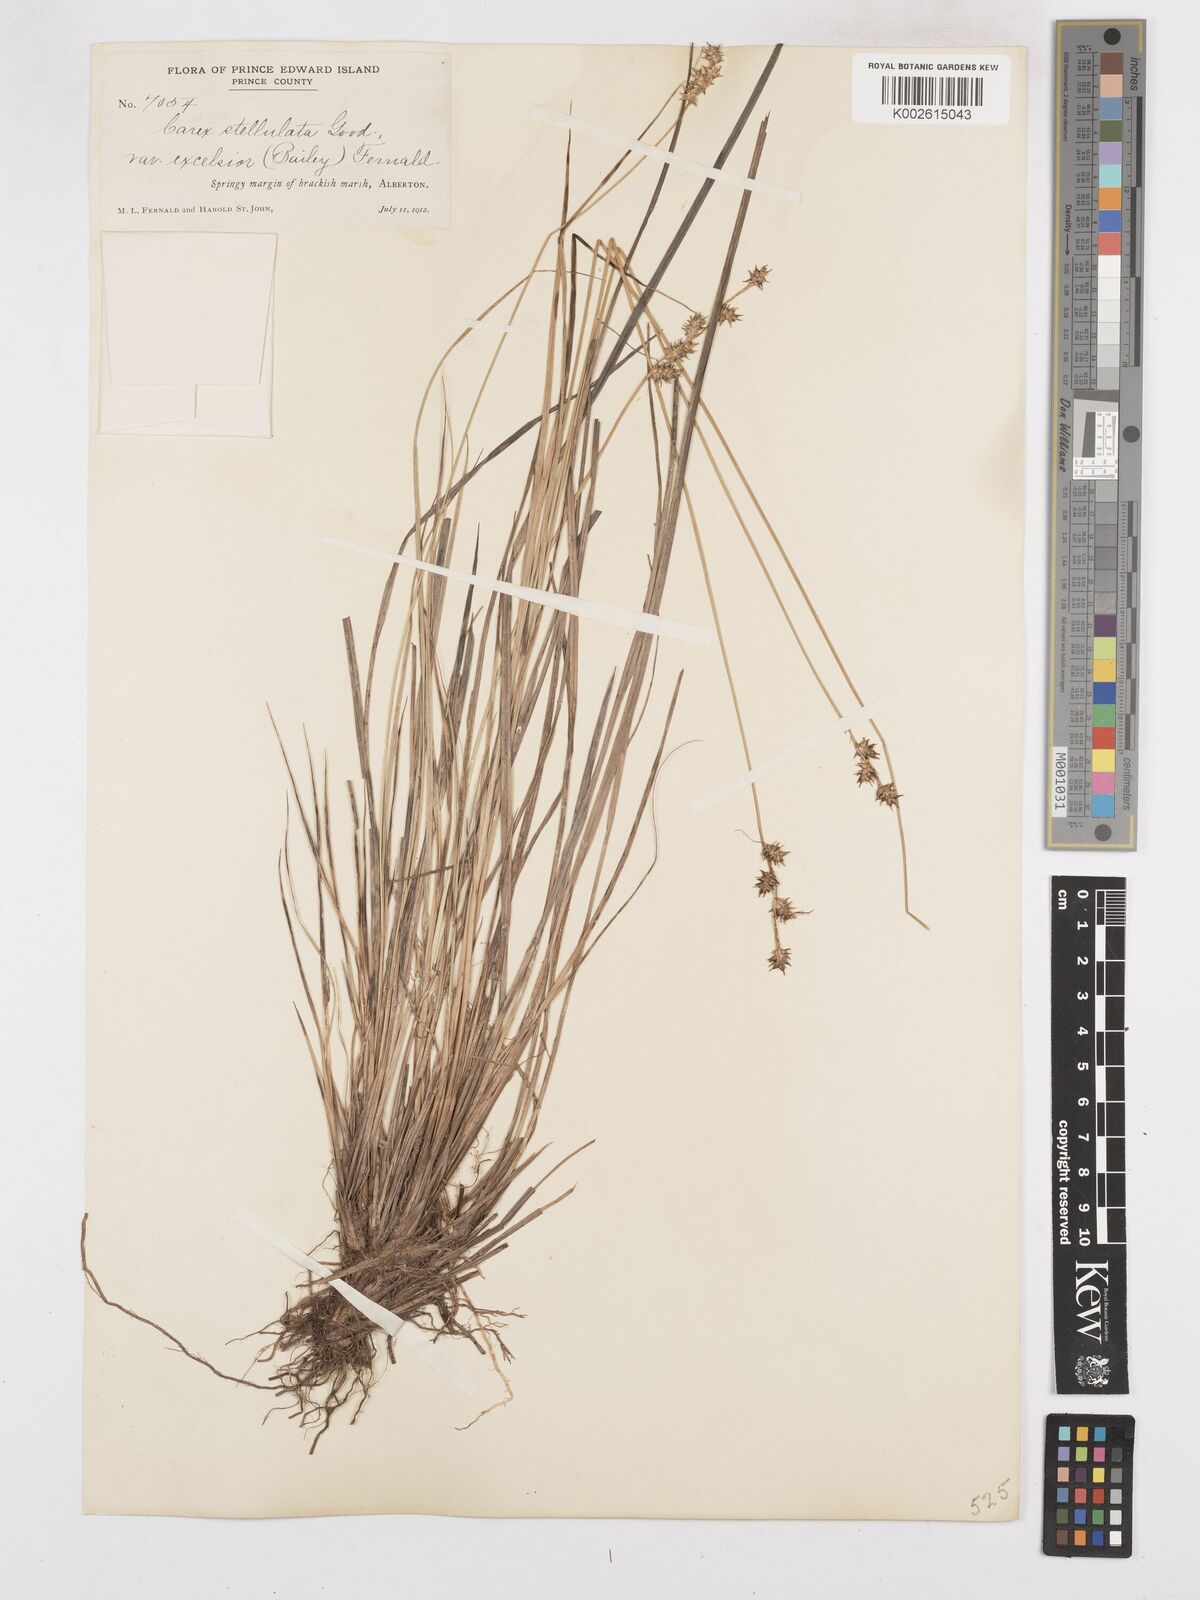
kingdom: Plantae
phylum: Tracheophyta
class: Liliopsida
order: Poales
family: Cyperaceae
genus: Carex
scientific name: Carex atlantica
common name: Atlantic sedge
